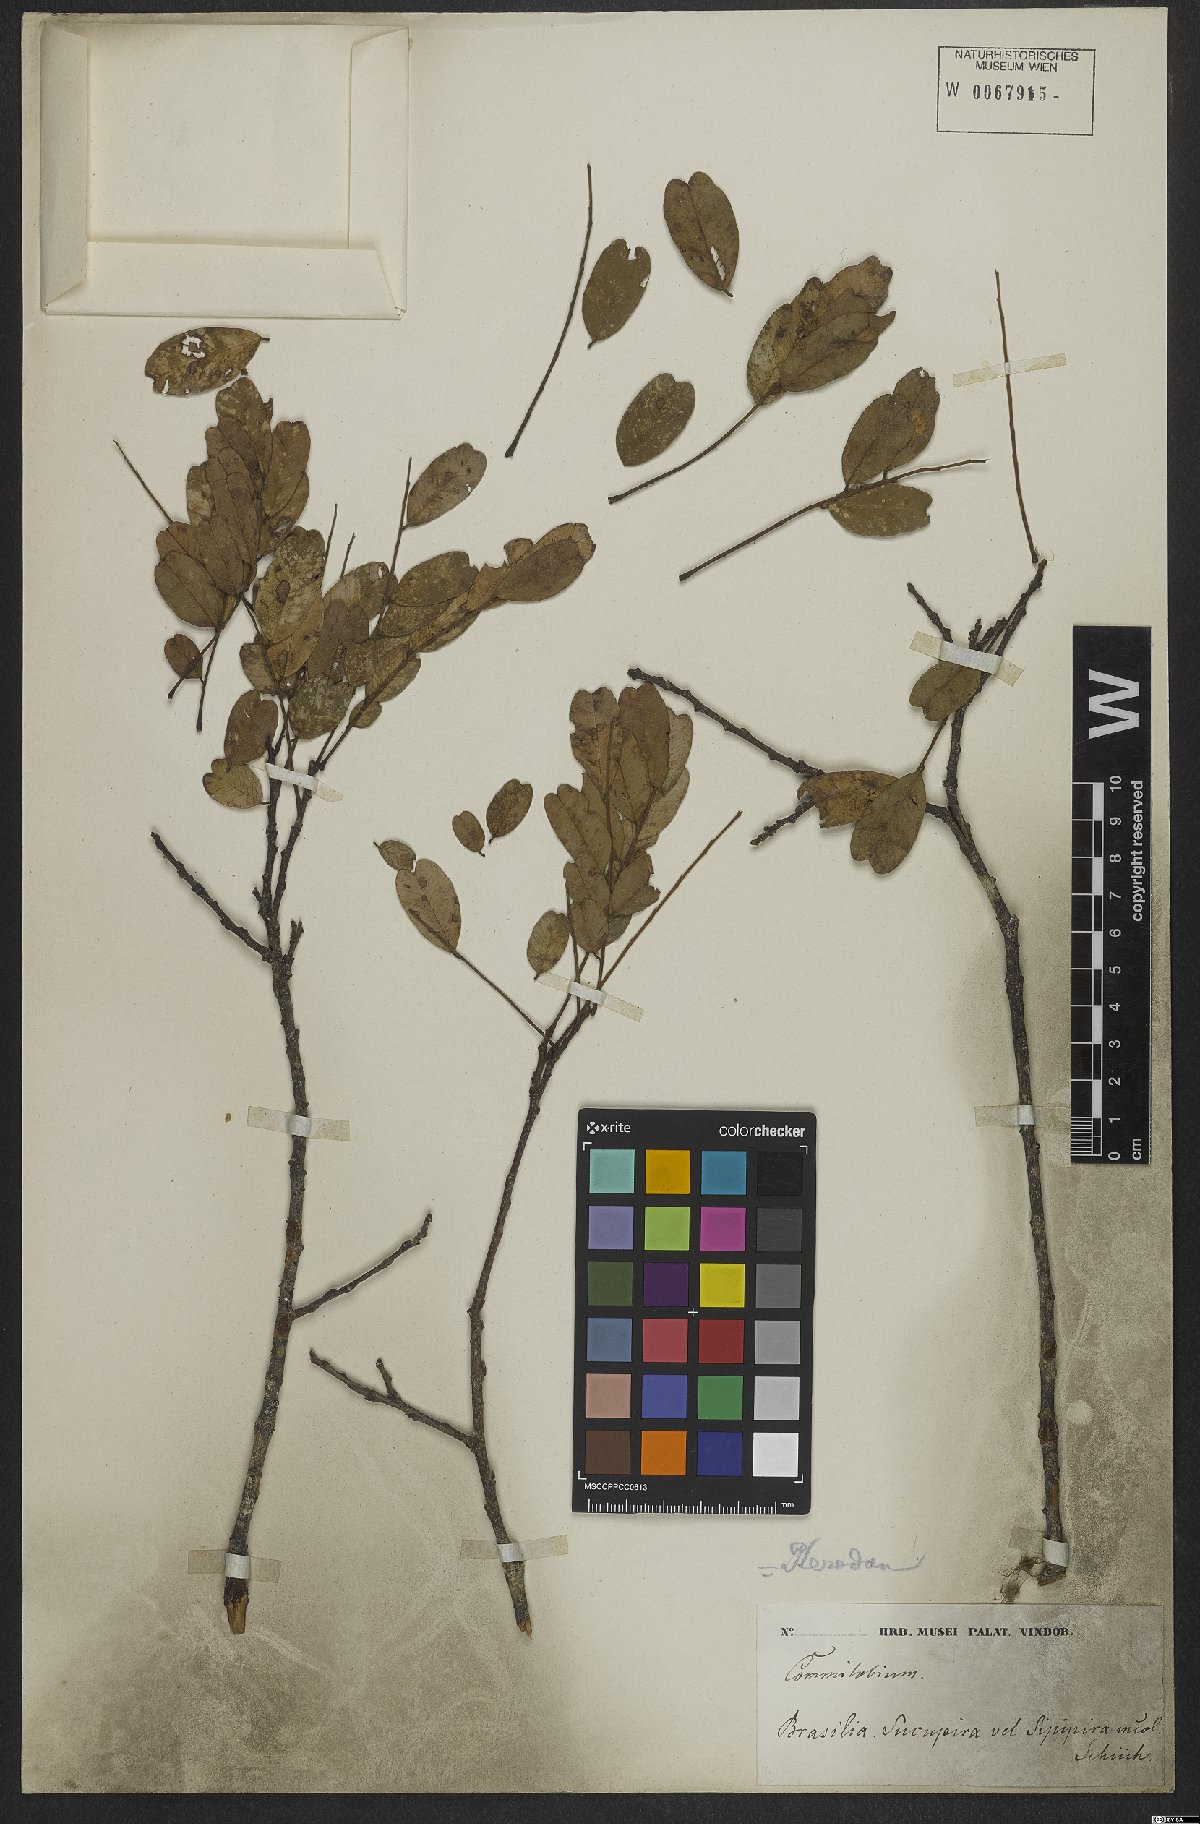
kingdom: Plantae
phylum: Tracheophyta
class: Magnoliopsida
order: Fabales
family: Fabaceae
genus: Pterodon
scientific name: Pterodon
